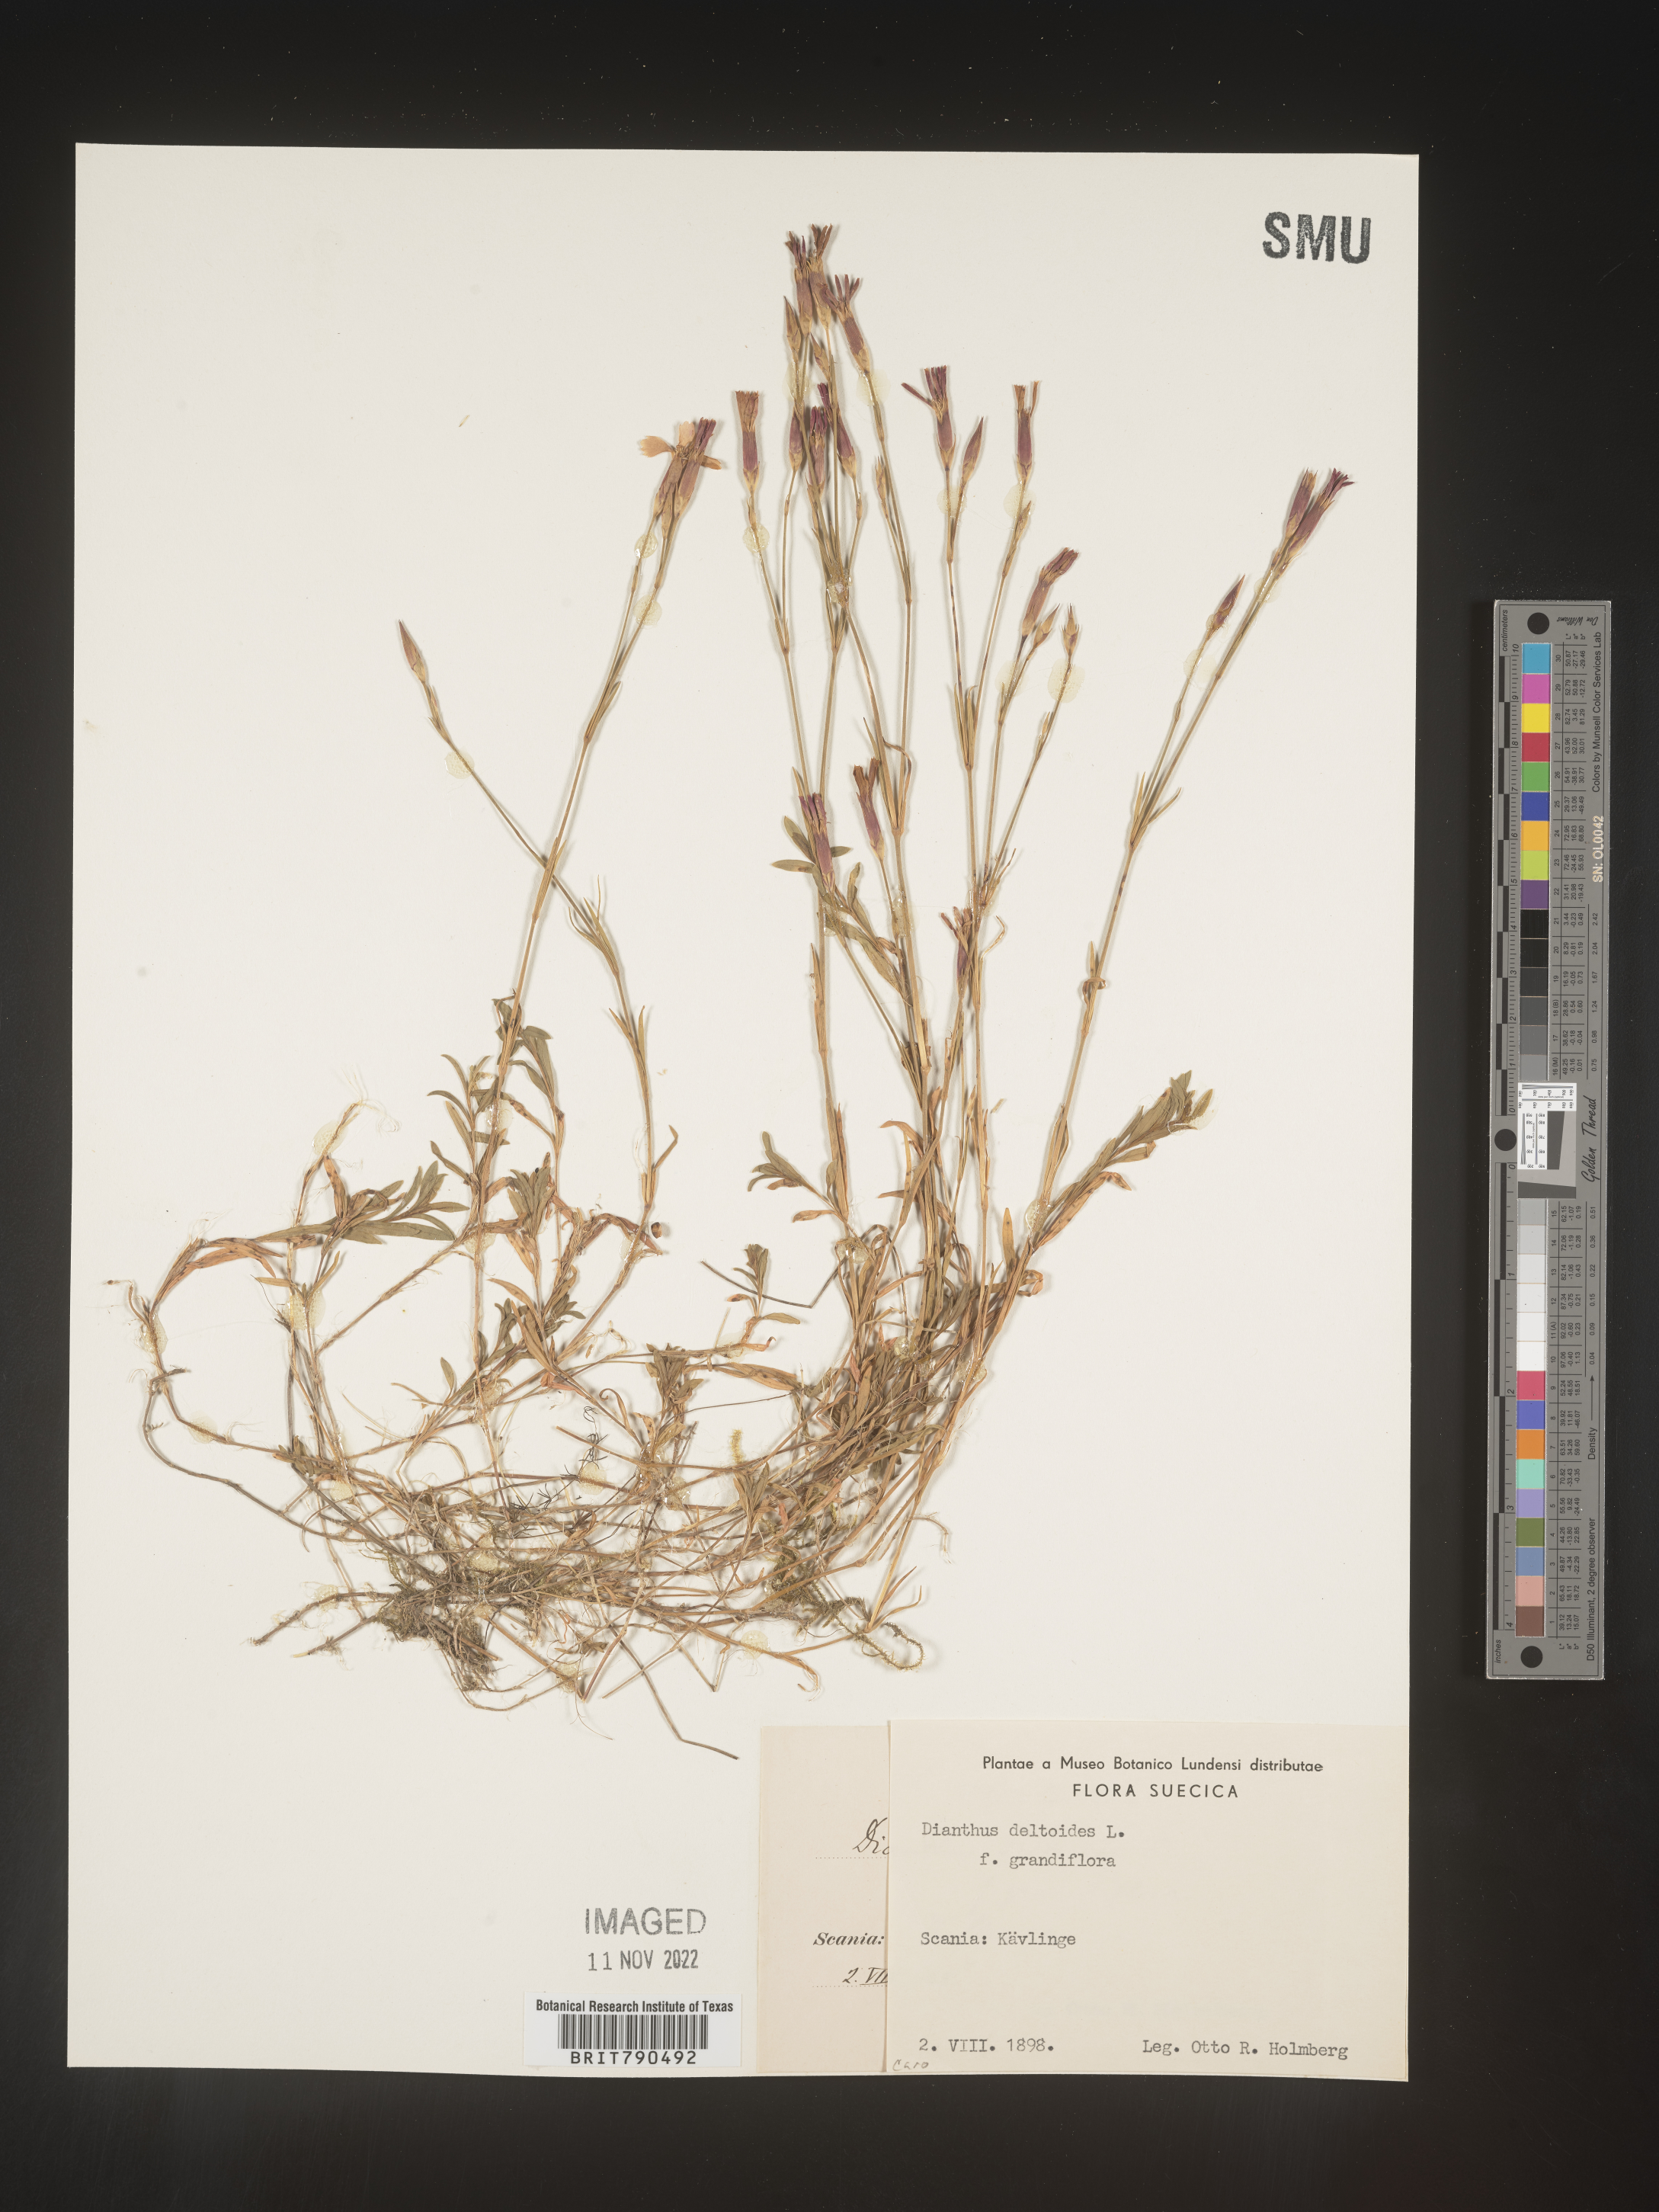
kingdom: Plantae
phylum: Tracheophyta
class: Magnoliopsida
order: Caryophyllales
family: Caryophyllaceae
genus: Dianthus
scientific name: Dianthus deltoides
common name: Maiden pink
